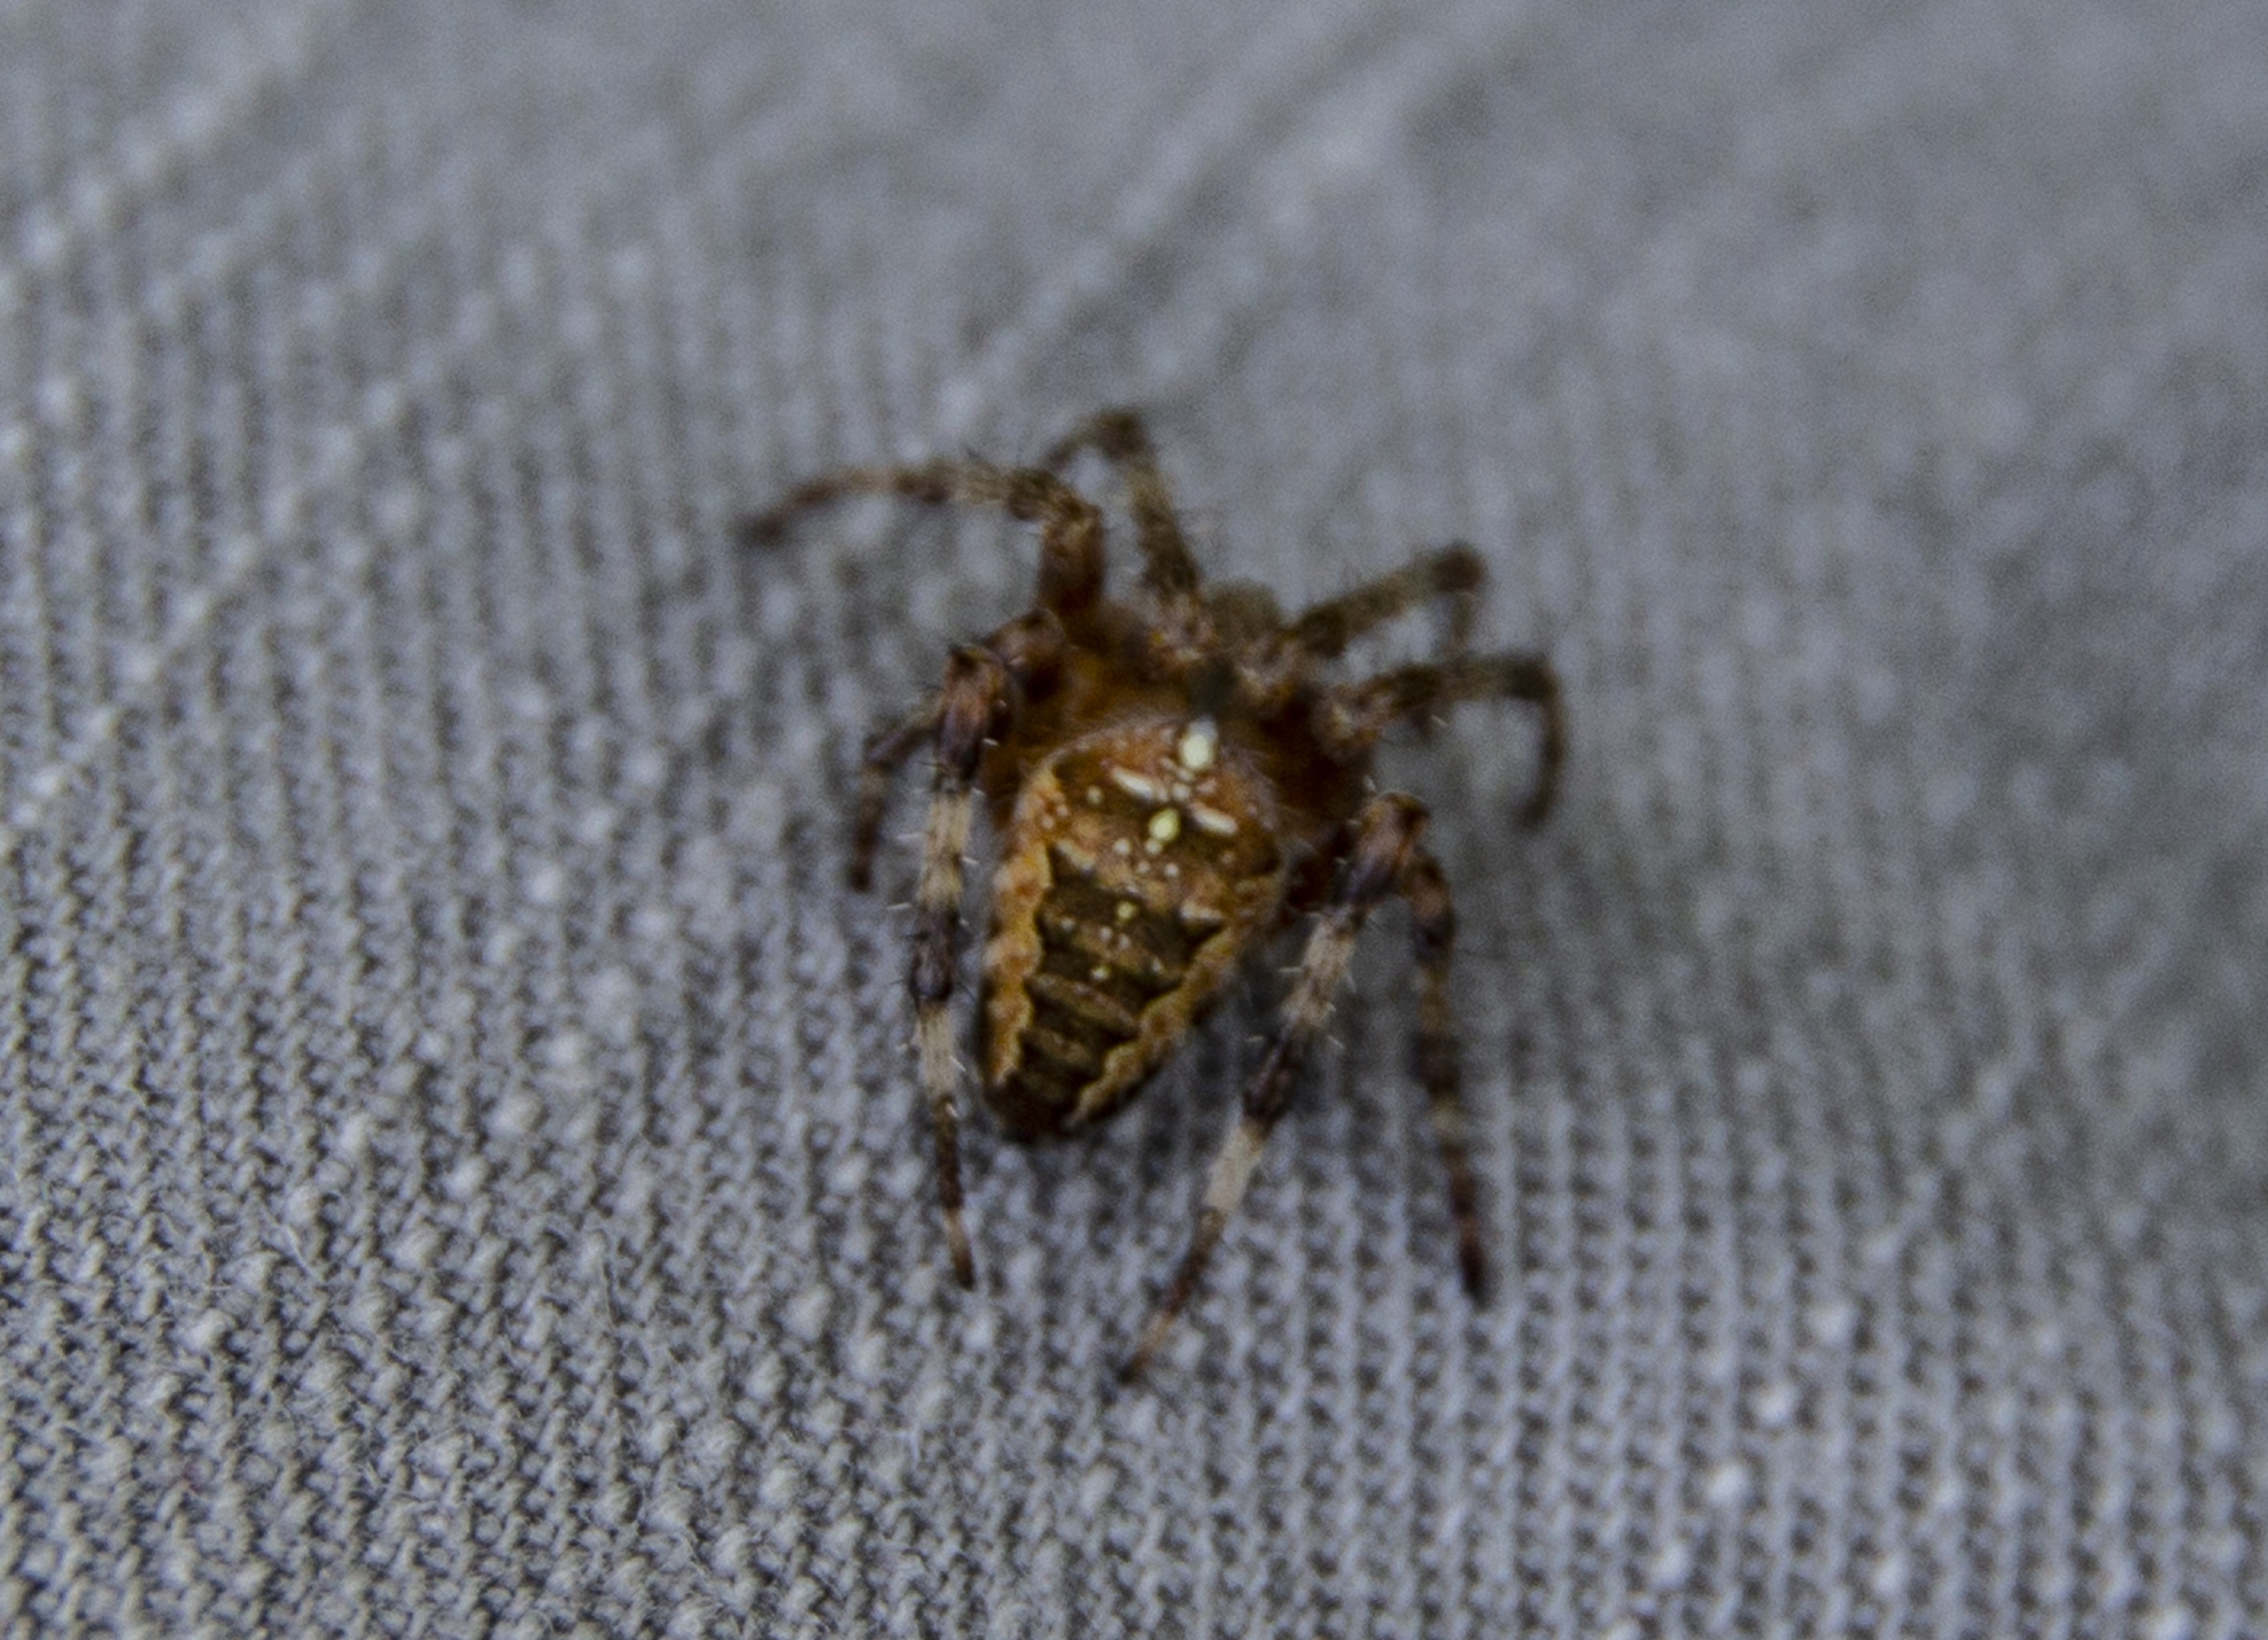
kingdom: Animalia
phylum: Arthropoda
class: Arachnida
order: Araneae
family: Araneidae
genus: Araneus
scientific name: Araneus diadematus
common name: Korsedderkop
